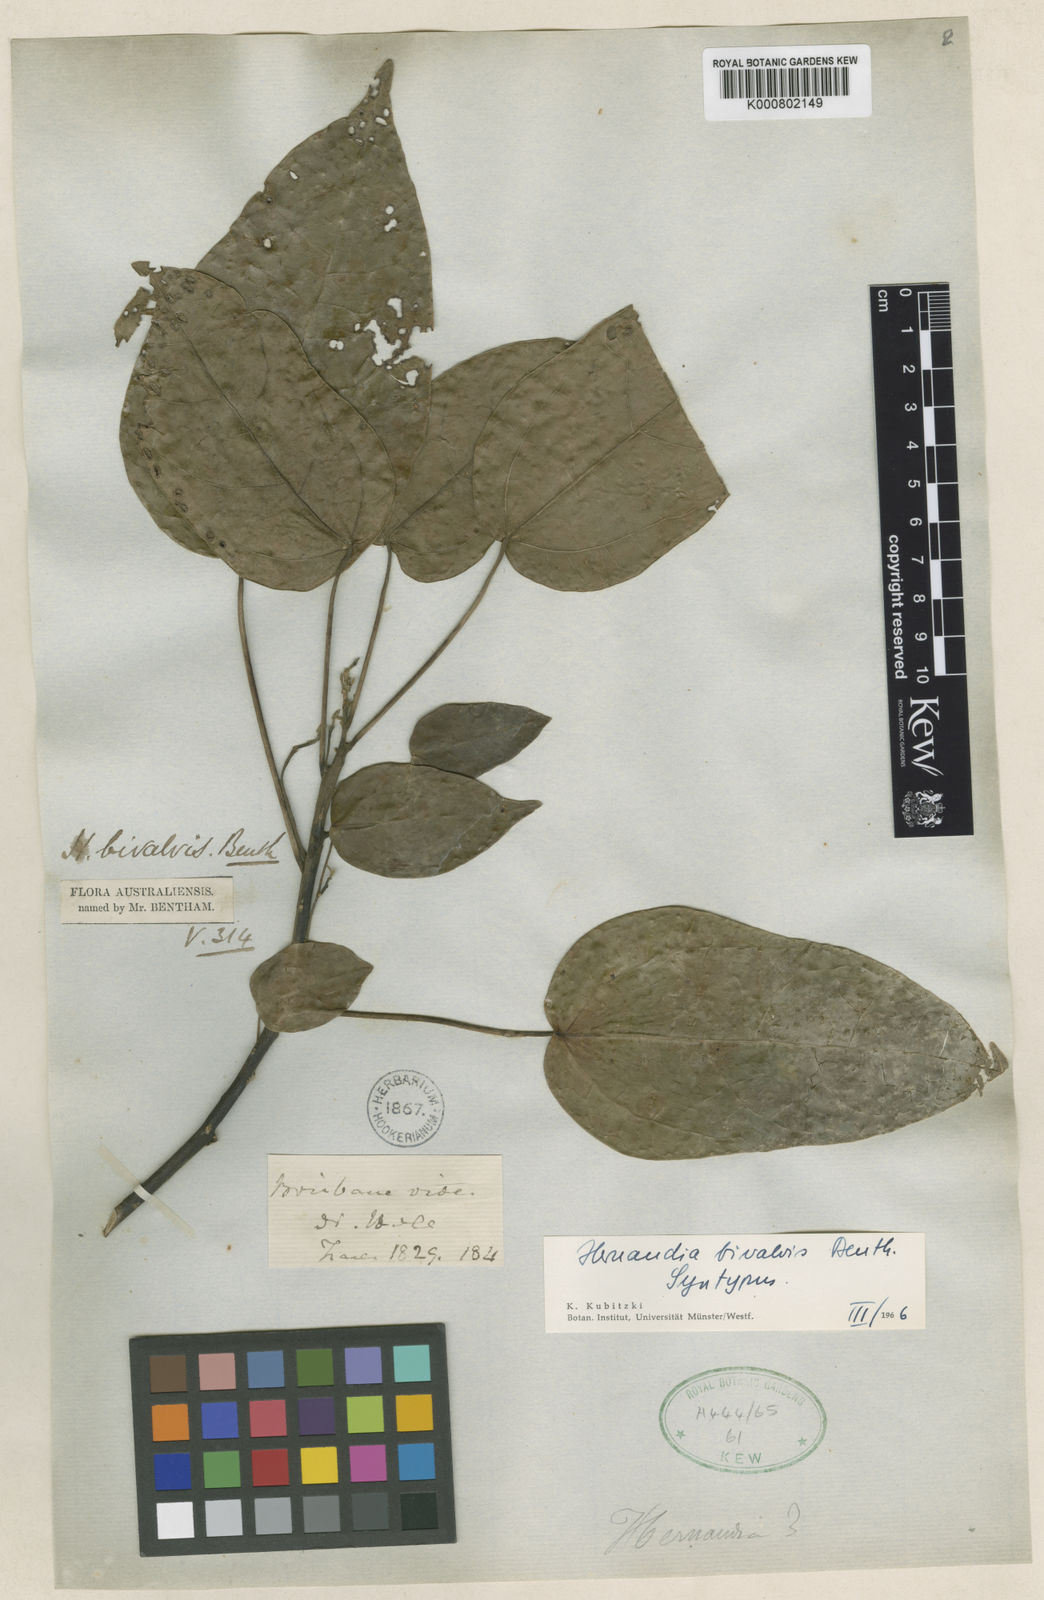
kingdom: Plantae
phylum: Tracheophyta
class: Magnoliopsida
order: Laurales
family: Hernandiaceae
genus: Hernandia
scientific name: Hernandia bivalvis
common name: Greasenut
